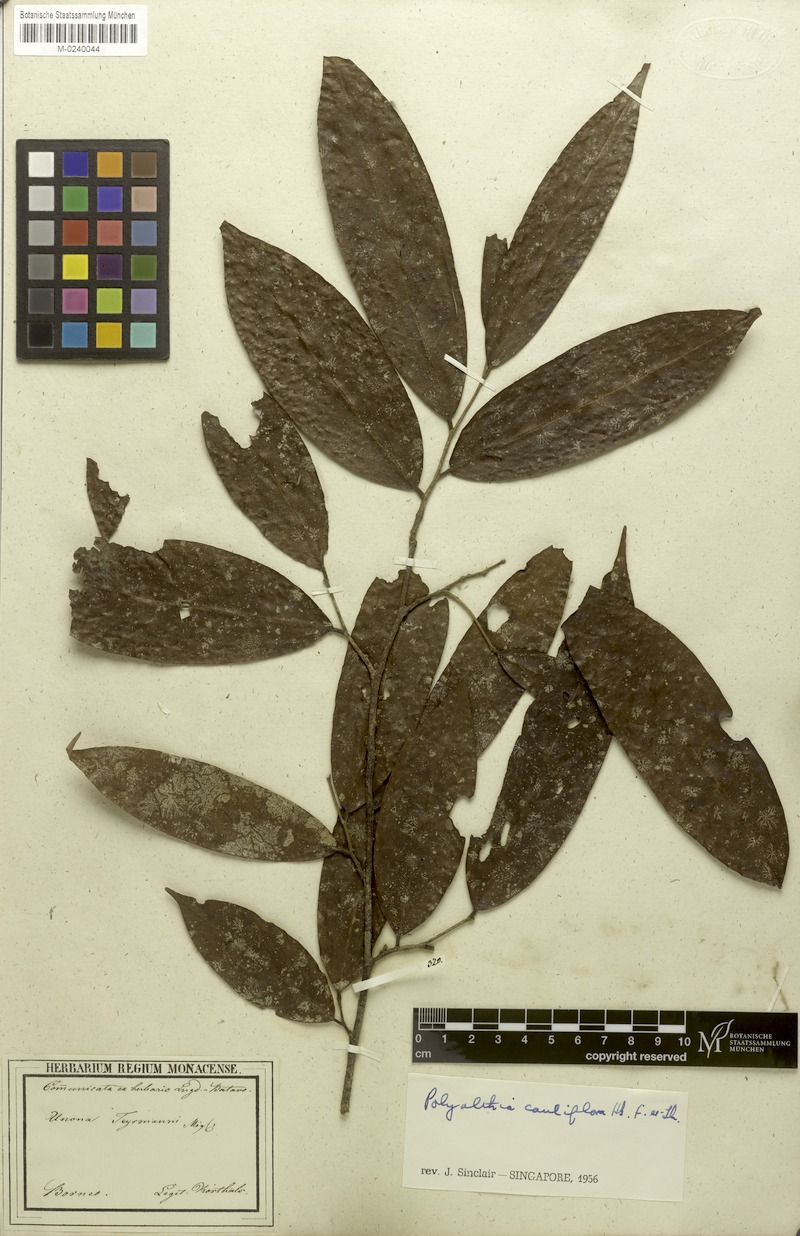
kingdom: Plantae
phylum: Tracheophyta
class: Magnoliopsida
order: Magnoliales
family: Annonaceae
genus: Polyalthia
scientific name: Polyalthia cauliflora
